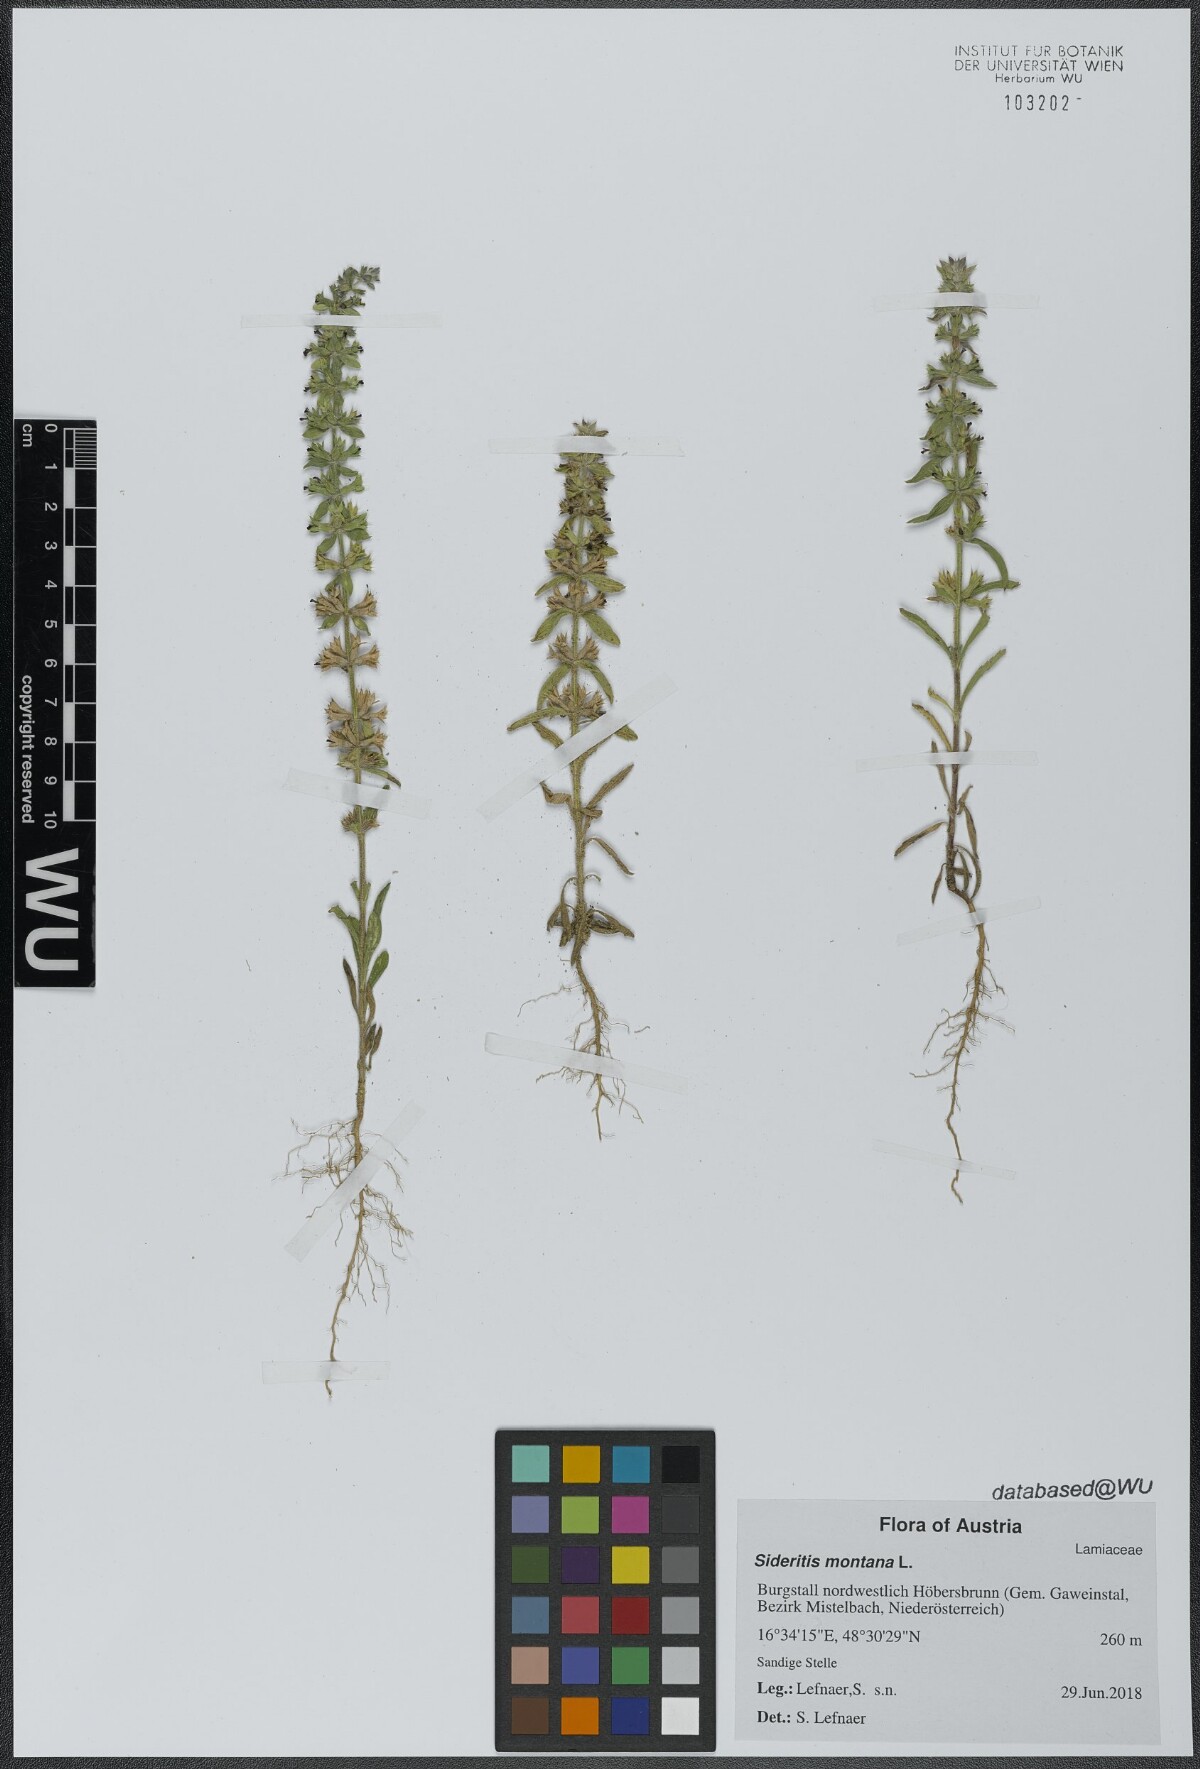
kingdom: Plantae
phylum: Tracheophyta
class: Magnoliopsida
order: Lamiales
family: Lamiaceae
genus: Sideritis
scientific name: Sideritis montana
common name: Mountain ironwort
